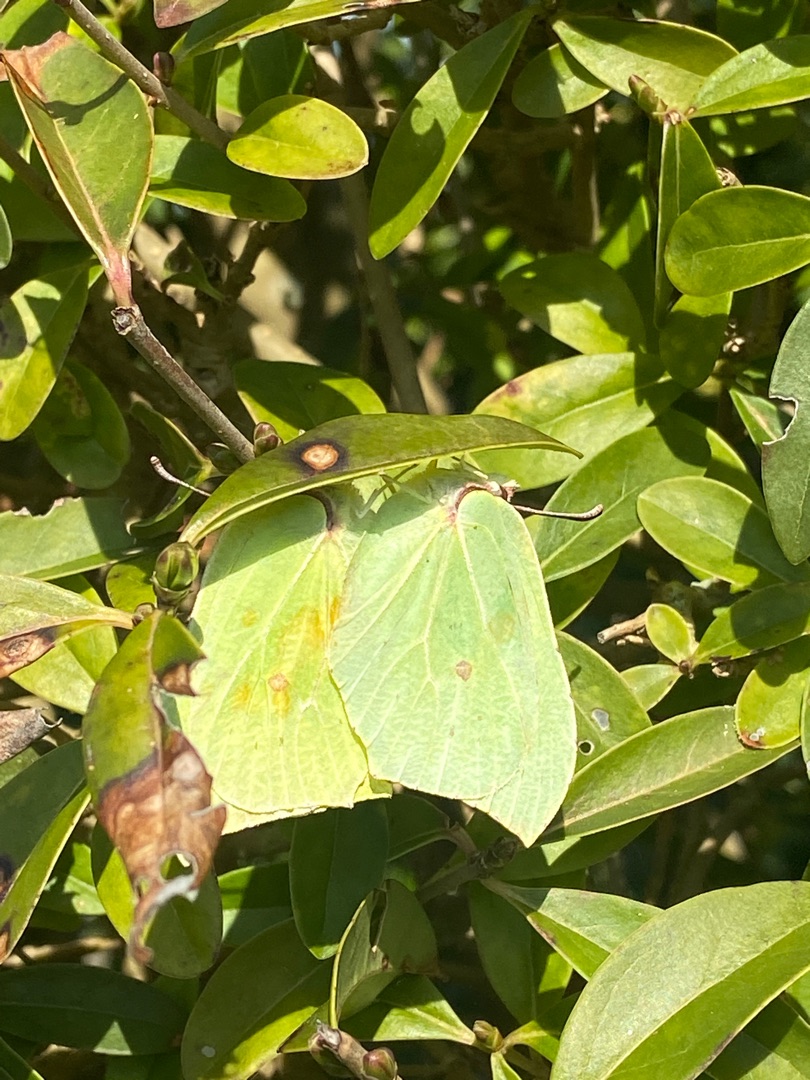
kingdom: Animalia
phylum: Arthropoda
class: Insecta
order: Lepidoptera
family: Pieridae
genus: Gonepteryx
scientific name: Gonepteryx rhamni
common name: Citronsommerfugl
